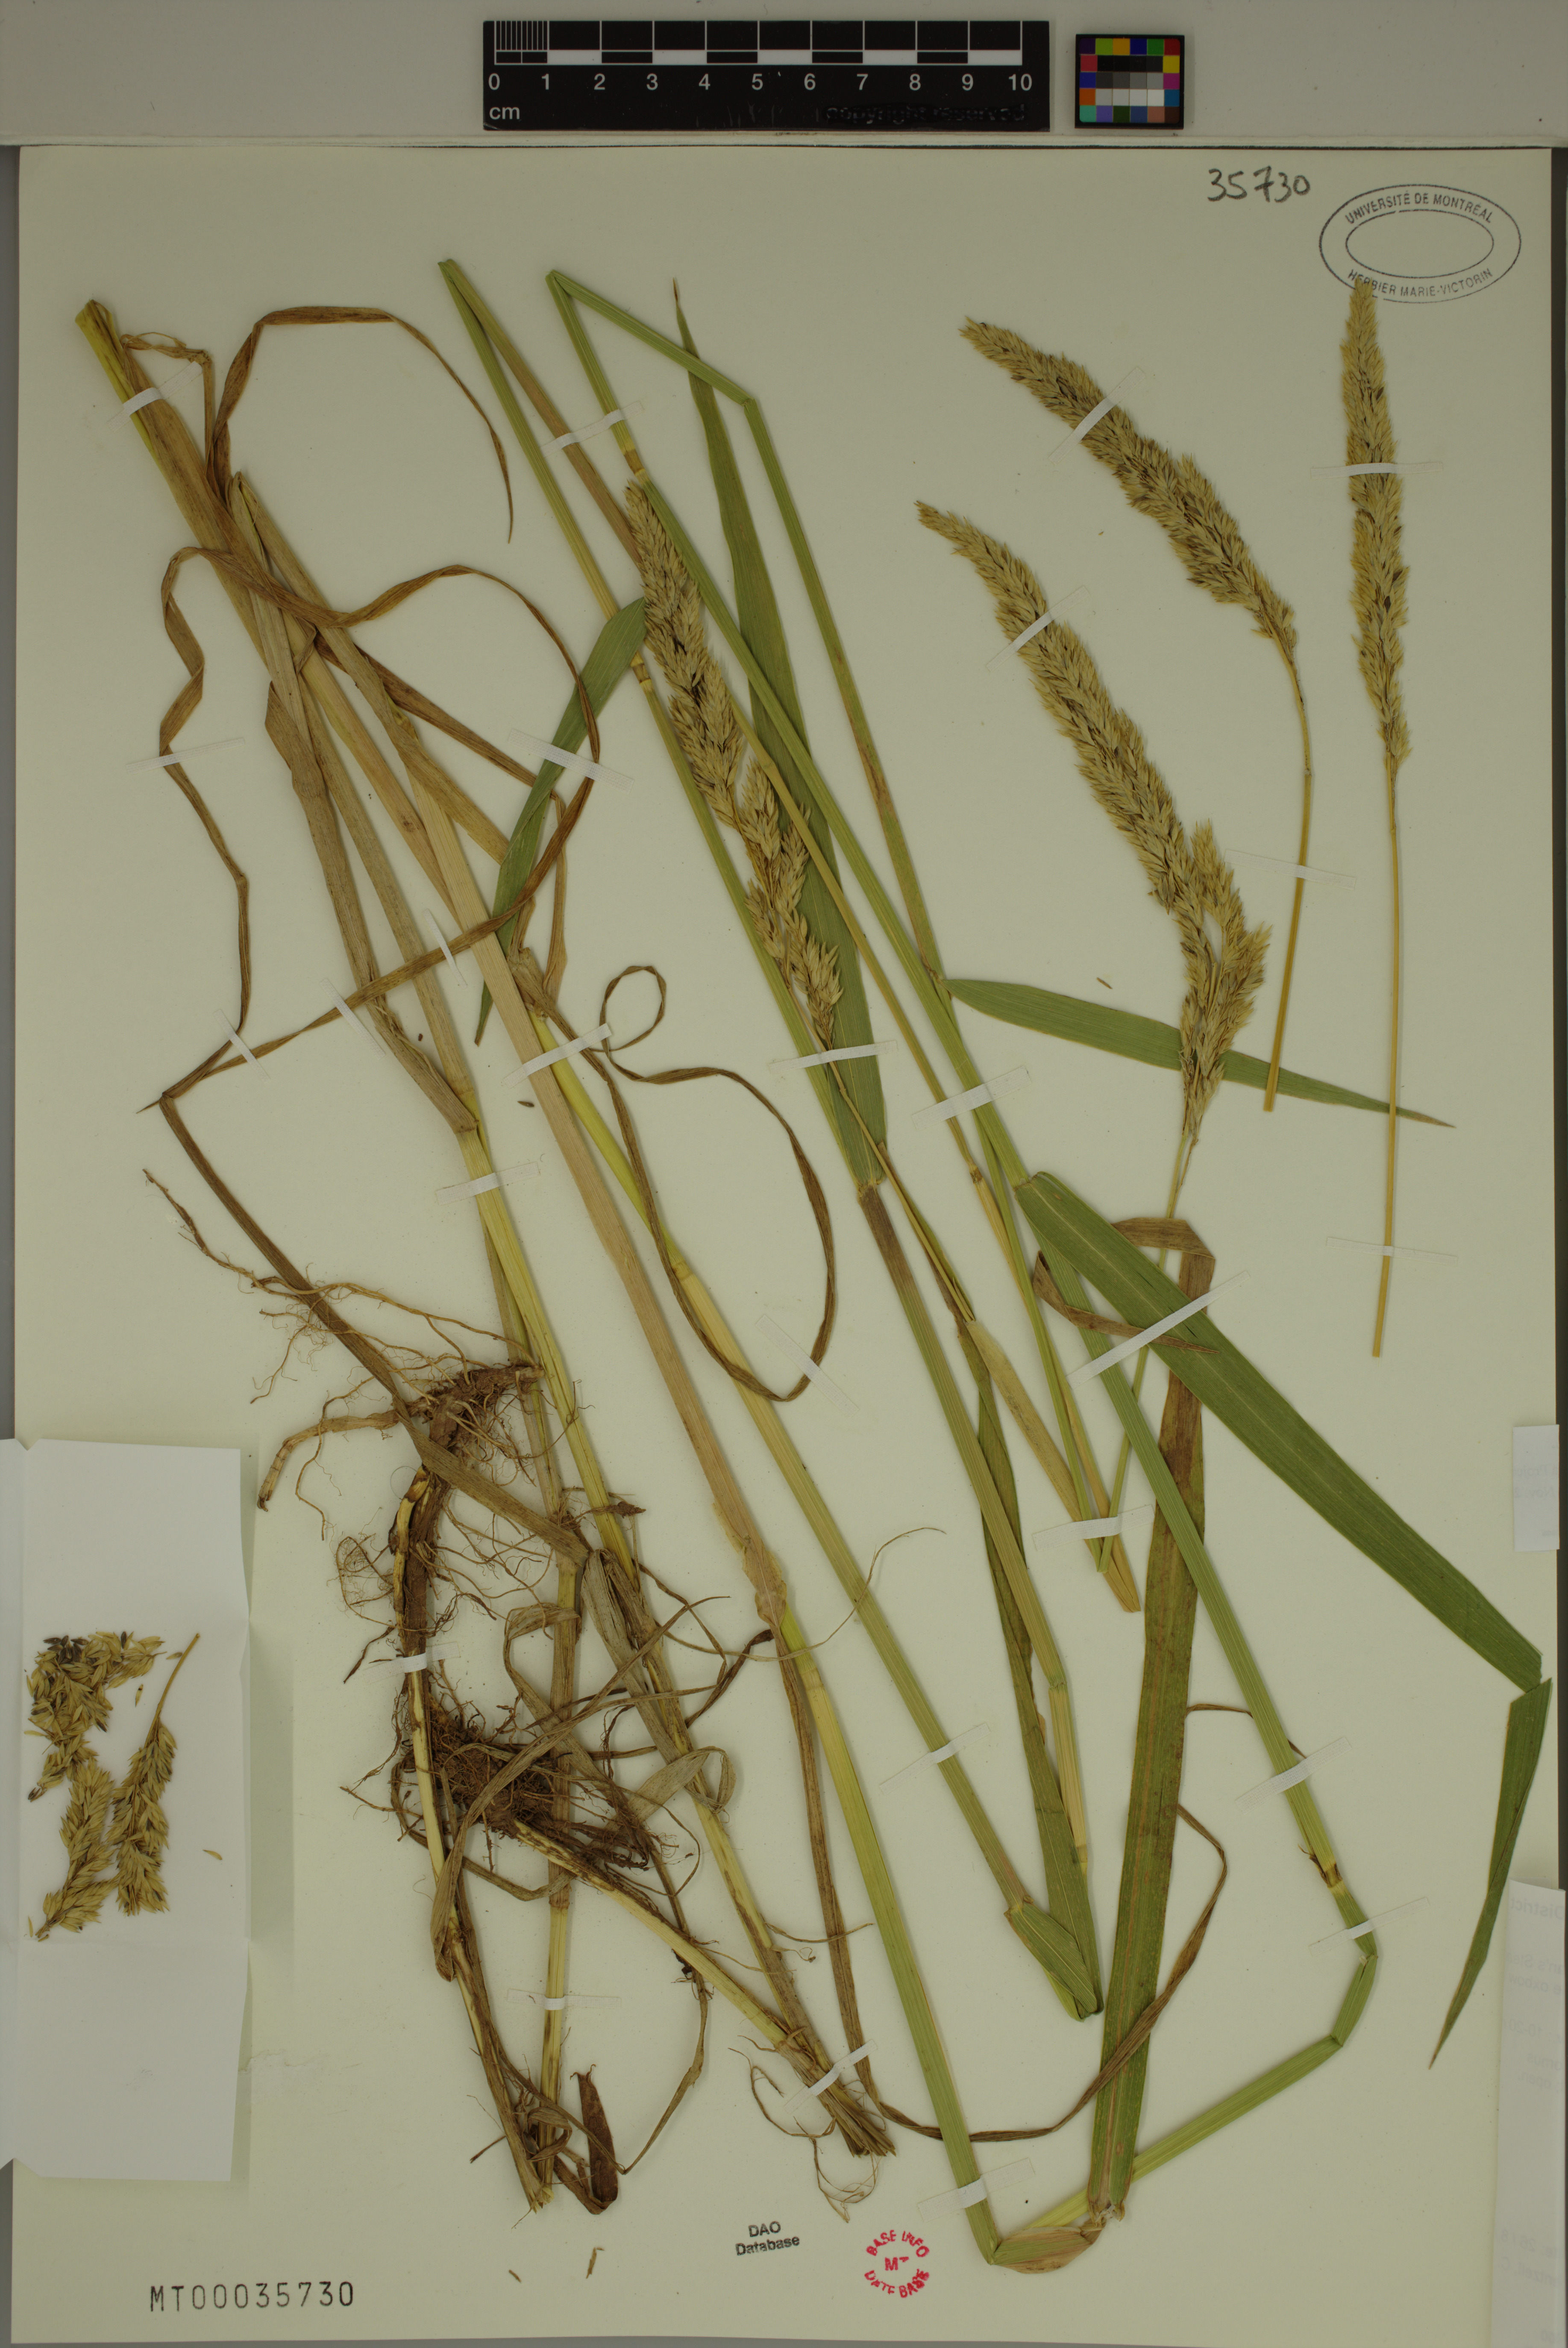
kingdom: Plantae
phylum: Tracheophyta
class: Liliopsida
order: Poales
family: Poaceae
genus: Phalaris
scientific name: Phalaris arundinacea
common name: Reed canary-grass
